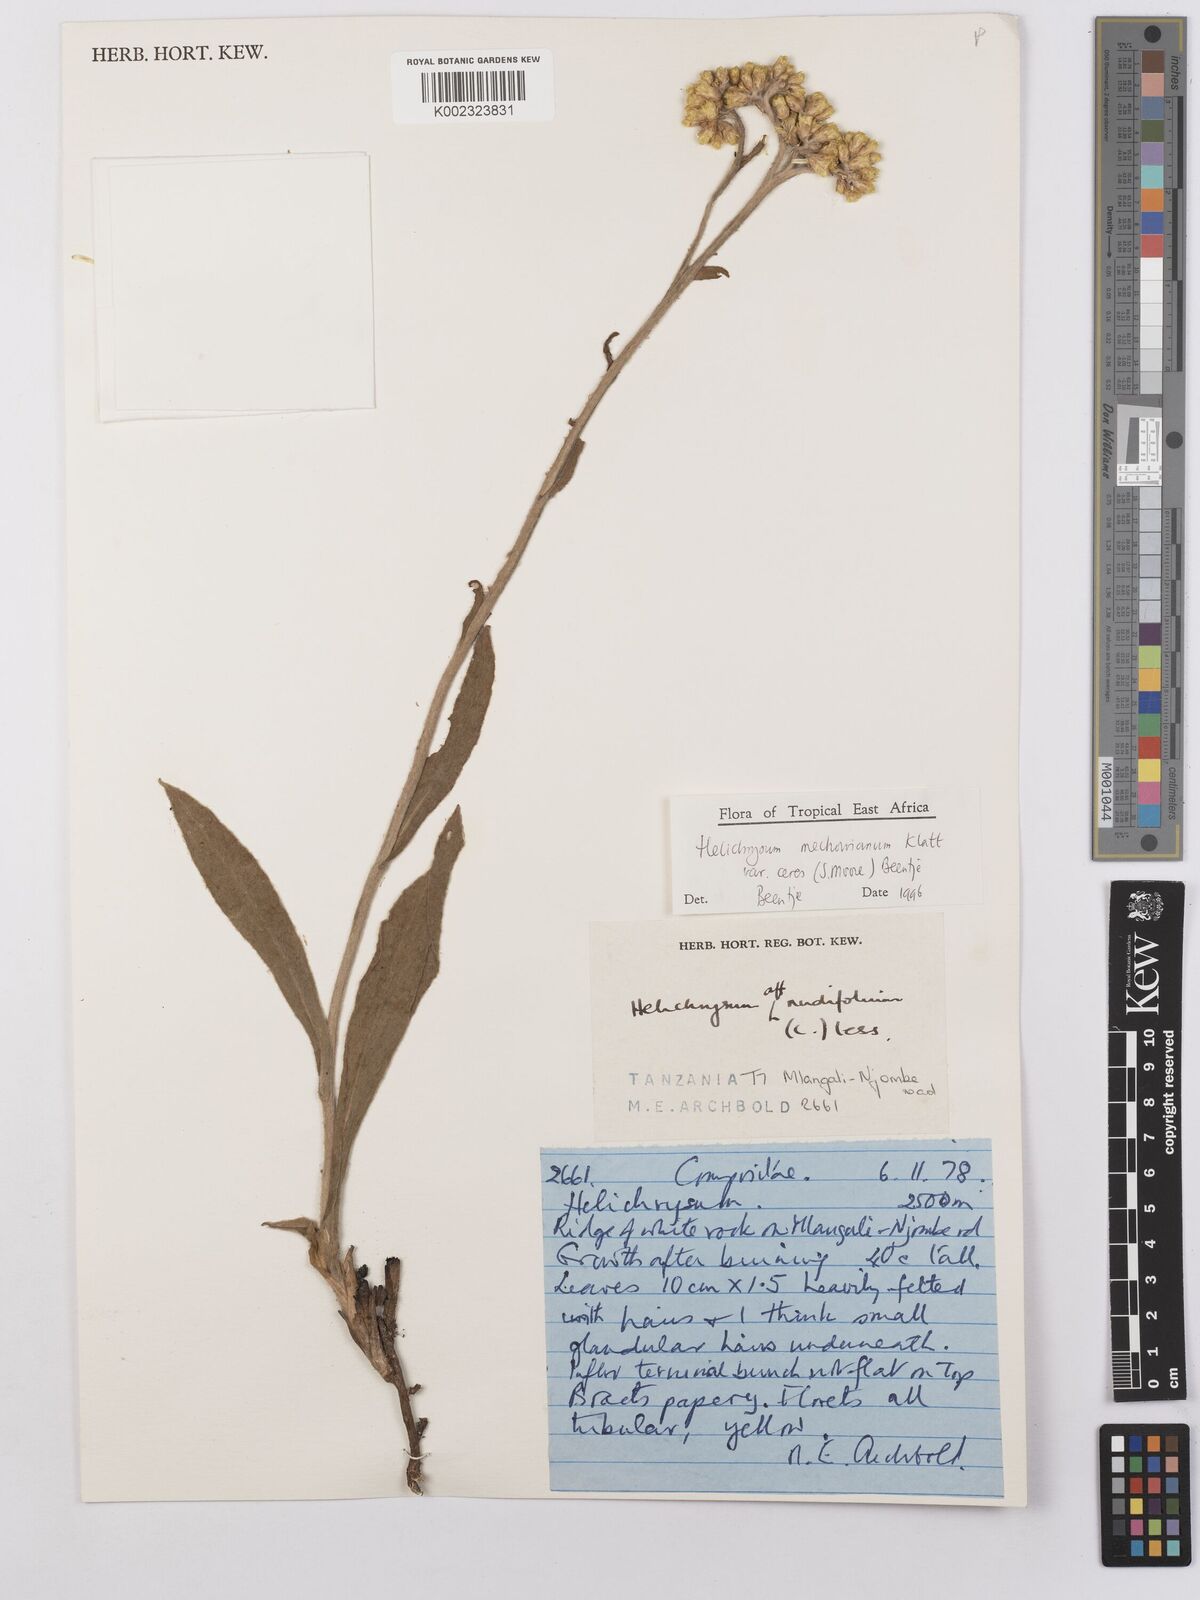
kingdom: Plantae
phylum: Tracheophyta
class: Magnoliopsida
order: Asterales
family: Asteraceae
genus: Helichrysum
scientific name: Helichrysum mechowianum
